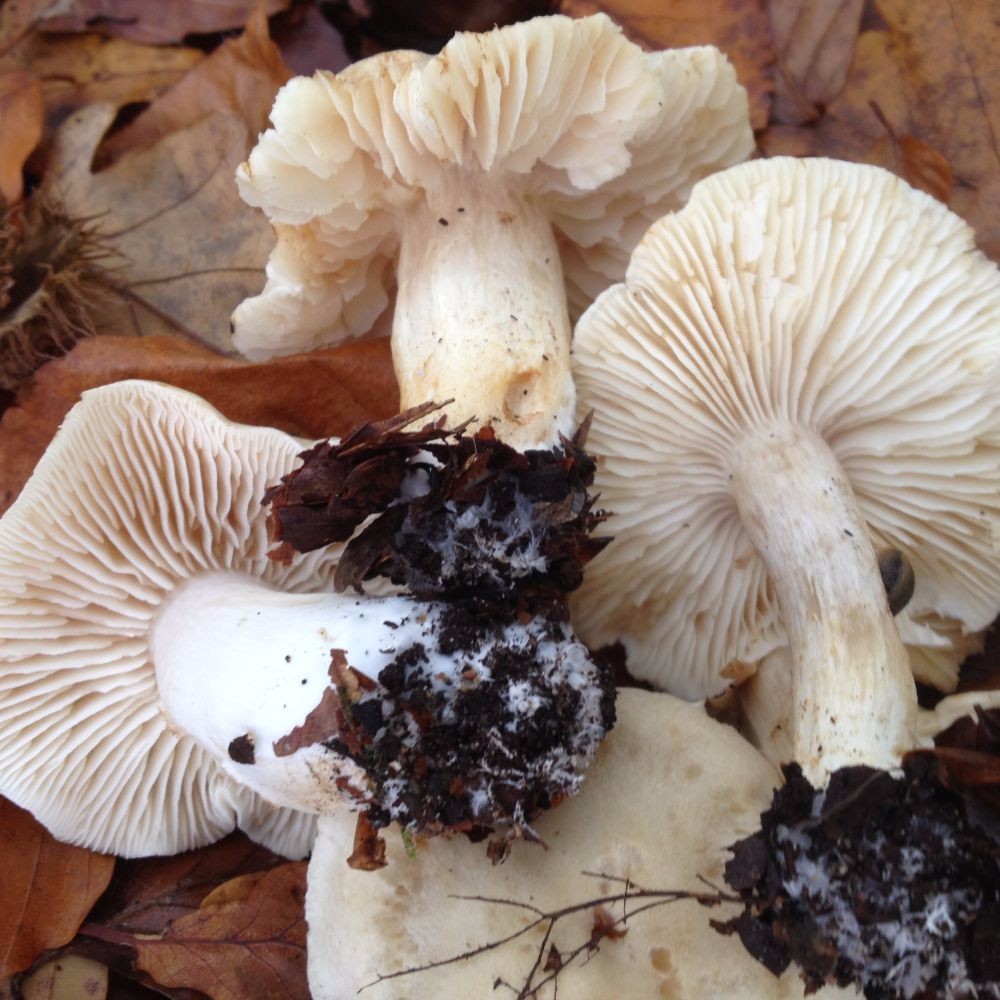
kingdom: Fungi
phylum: Basidiomycota
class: Agaricomycetes
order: Agaricales
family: Tricholomataceae
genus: Tricholoma
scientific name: Tricholoma lascivum
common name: stinkende ridderhat
